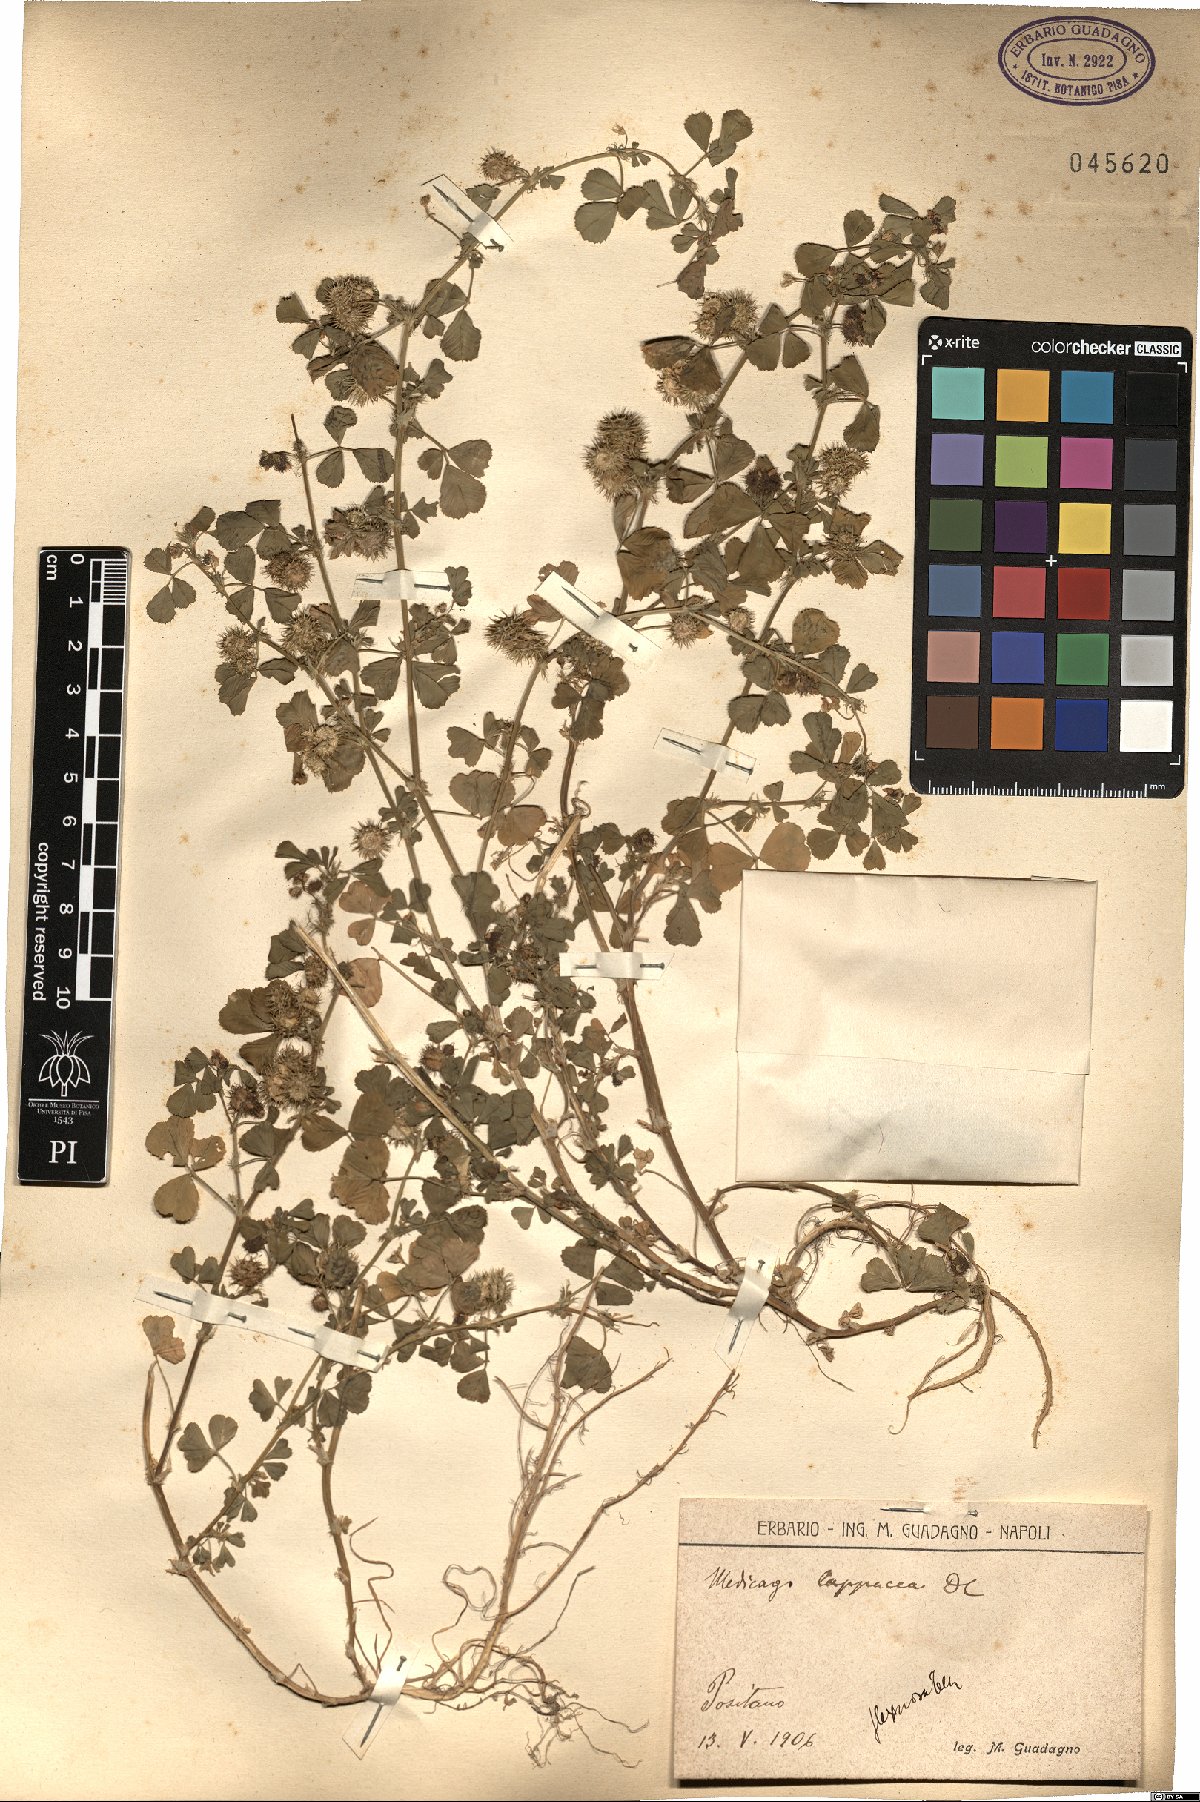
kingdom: Plantae
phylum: Tracheophyta
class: Magnoliopsida
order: Fabales
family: Fabaceae
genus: Medicago
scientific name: Medicago polymorpha
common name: Burclover
